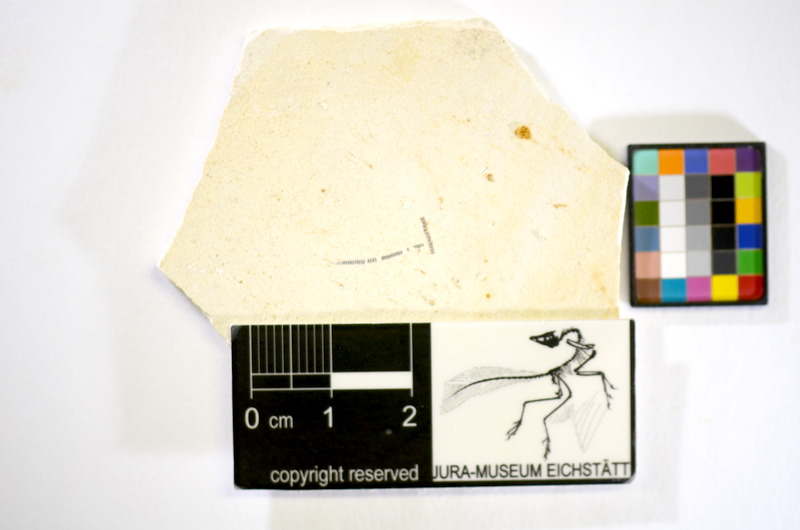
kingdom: Animalia
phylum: Chordata
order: Salmoniformes
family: Orthogonikleithridae
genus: Orthogonikleithrus
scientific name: Orthogonikleithrus hoelli
